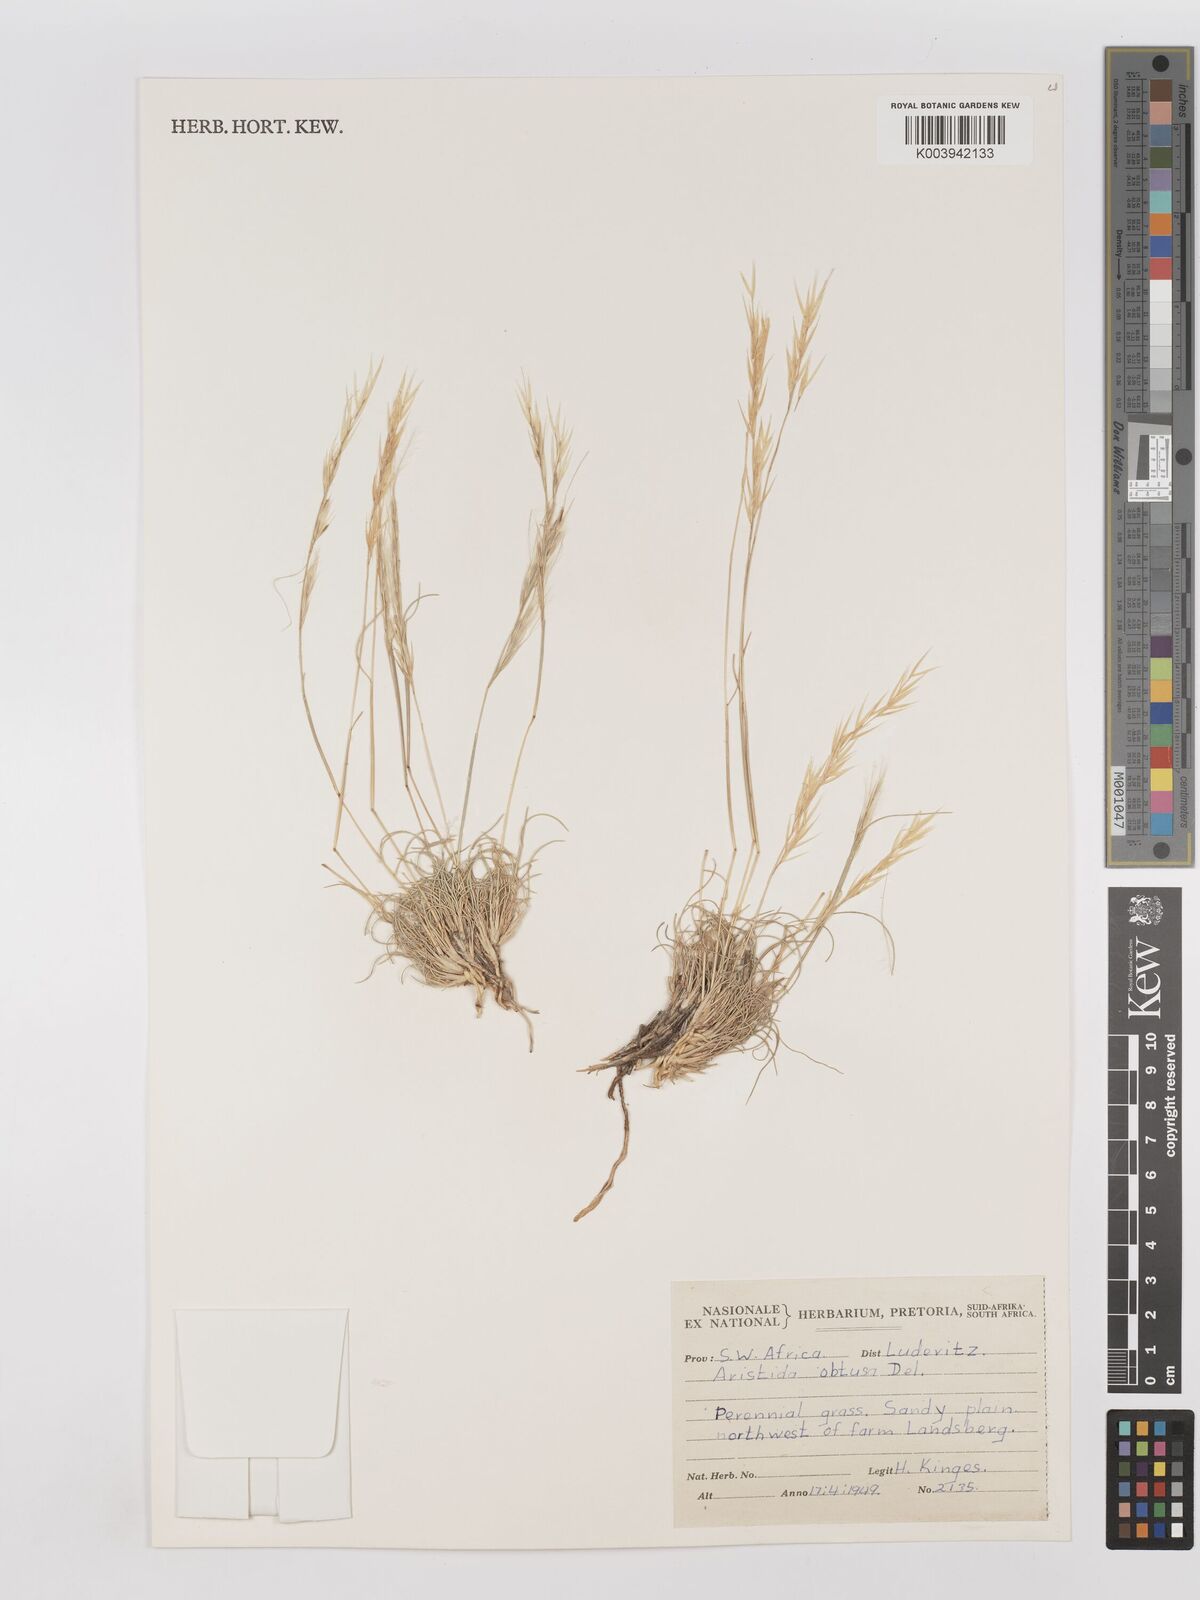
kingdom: Plantae
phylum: Tracheophyta
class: Liliopsida
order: Poales
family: Poaceae
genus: Stipagrostis
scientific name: Stipagrostis obtusa
